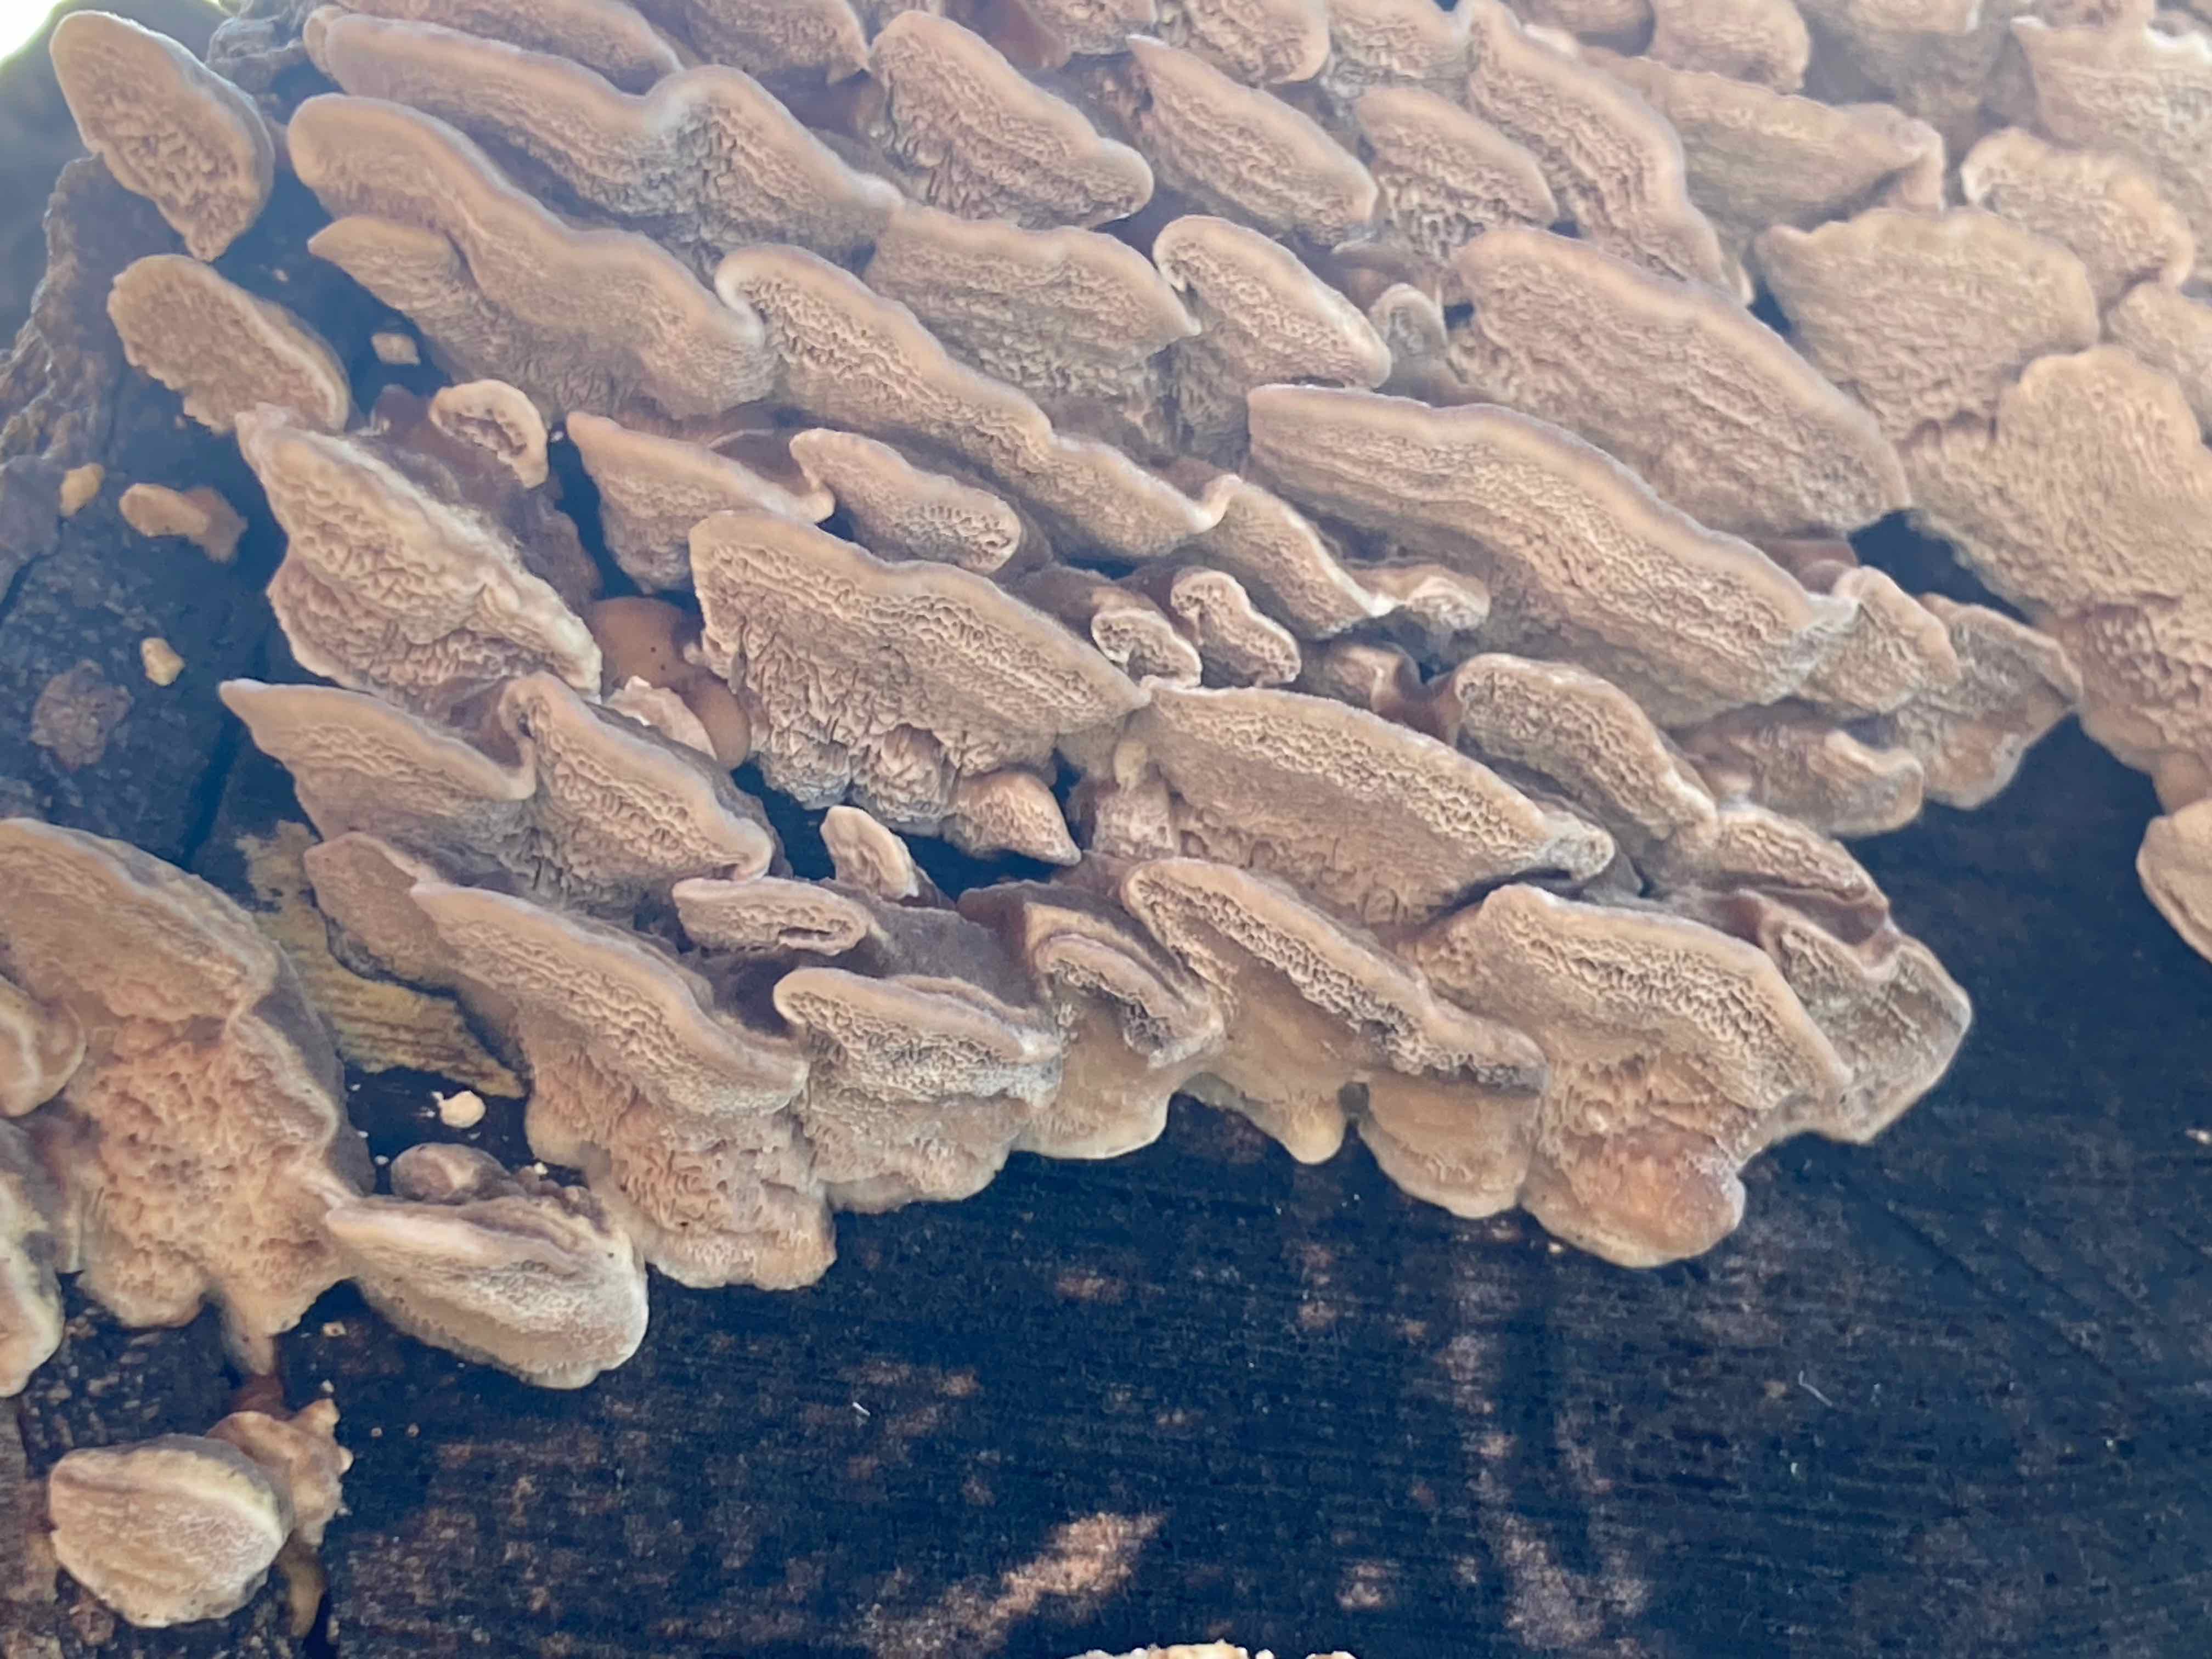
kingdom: Fungi
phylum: Basidiomycota
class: Agaricomycetes
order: Polyporales
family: Polyporaceae
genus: Trametes
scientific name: Trametes versicolor
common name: broget læderporesvamp
